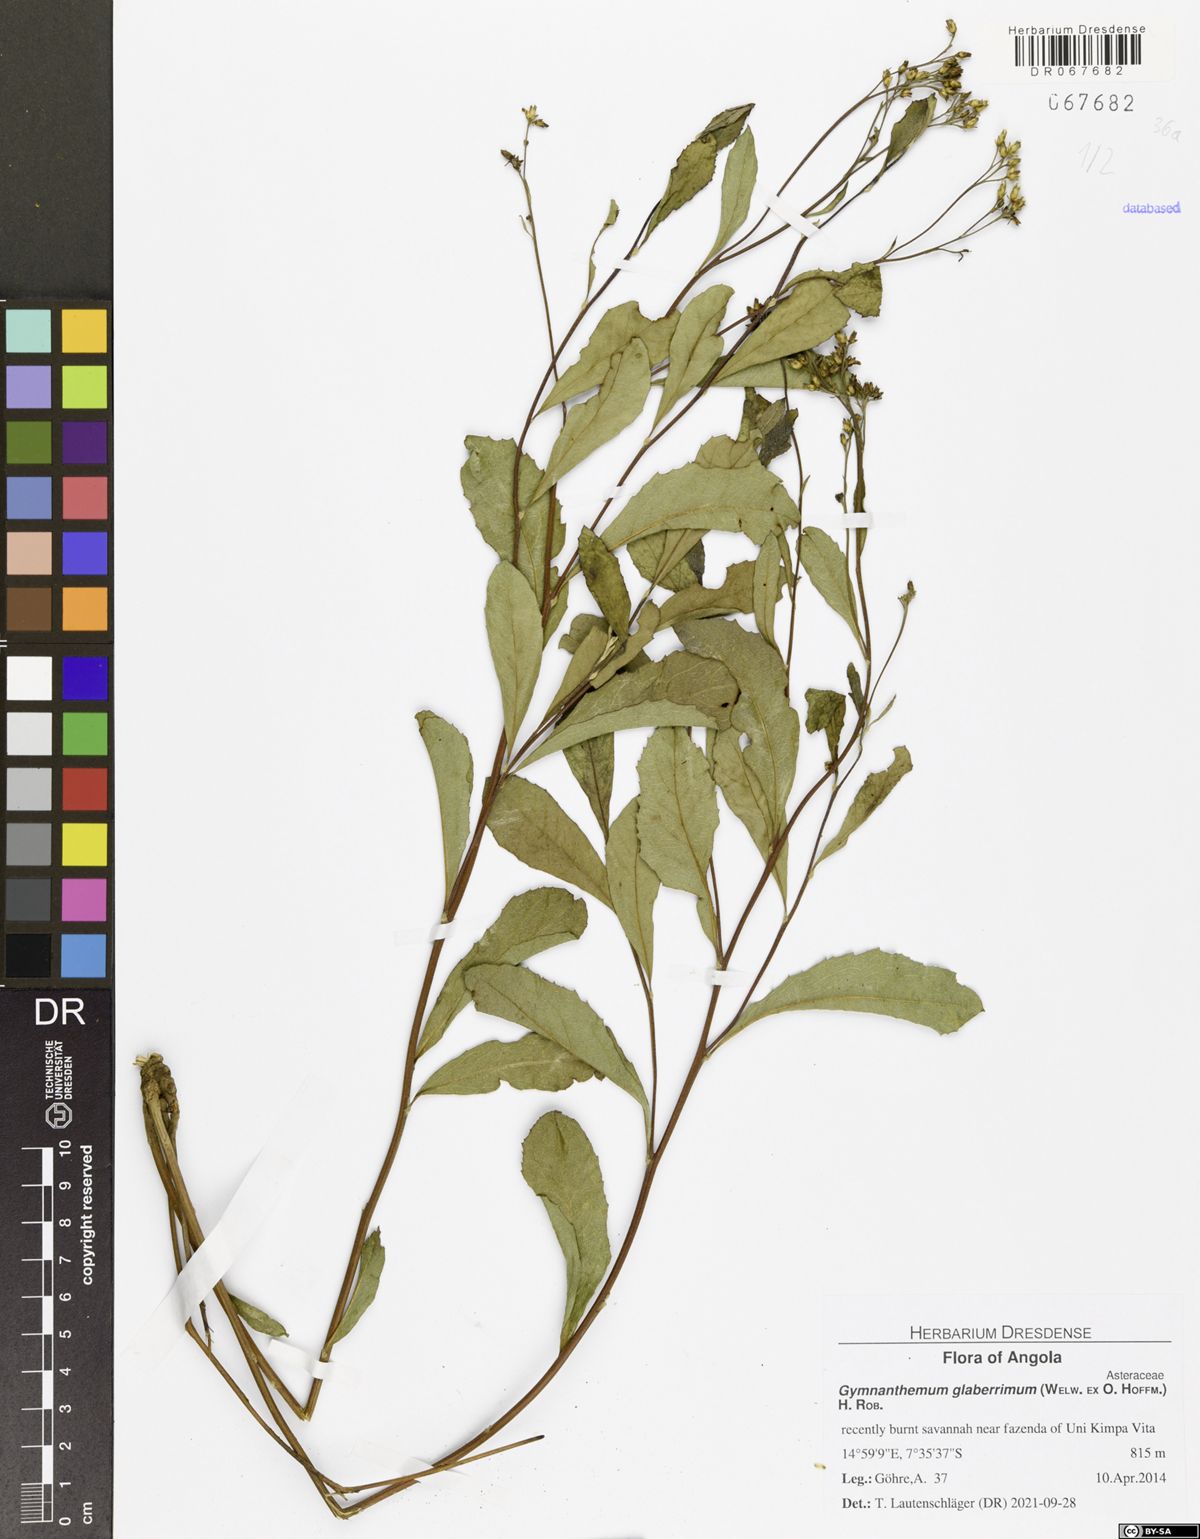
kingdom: Plantae
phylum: Tracheophyta
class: Magnoliopsida
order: Asterales
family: Asteraceae
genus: Gymnanthemum
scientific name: Gymnanthemum glaberrimum
